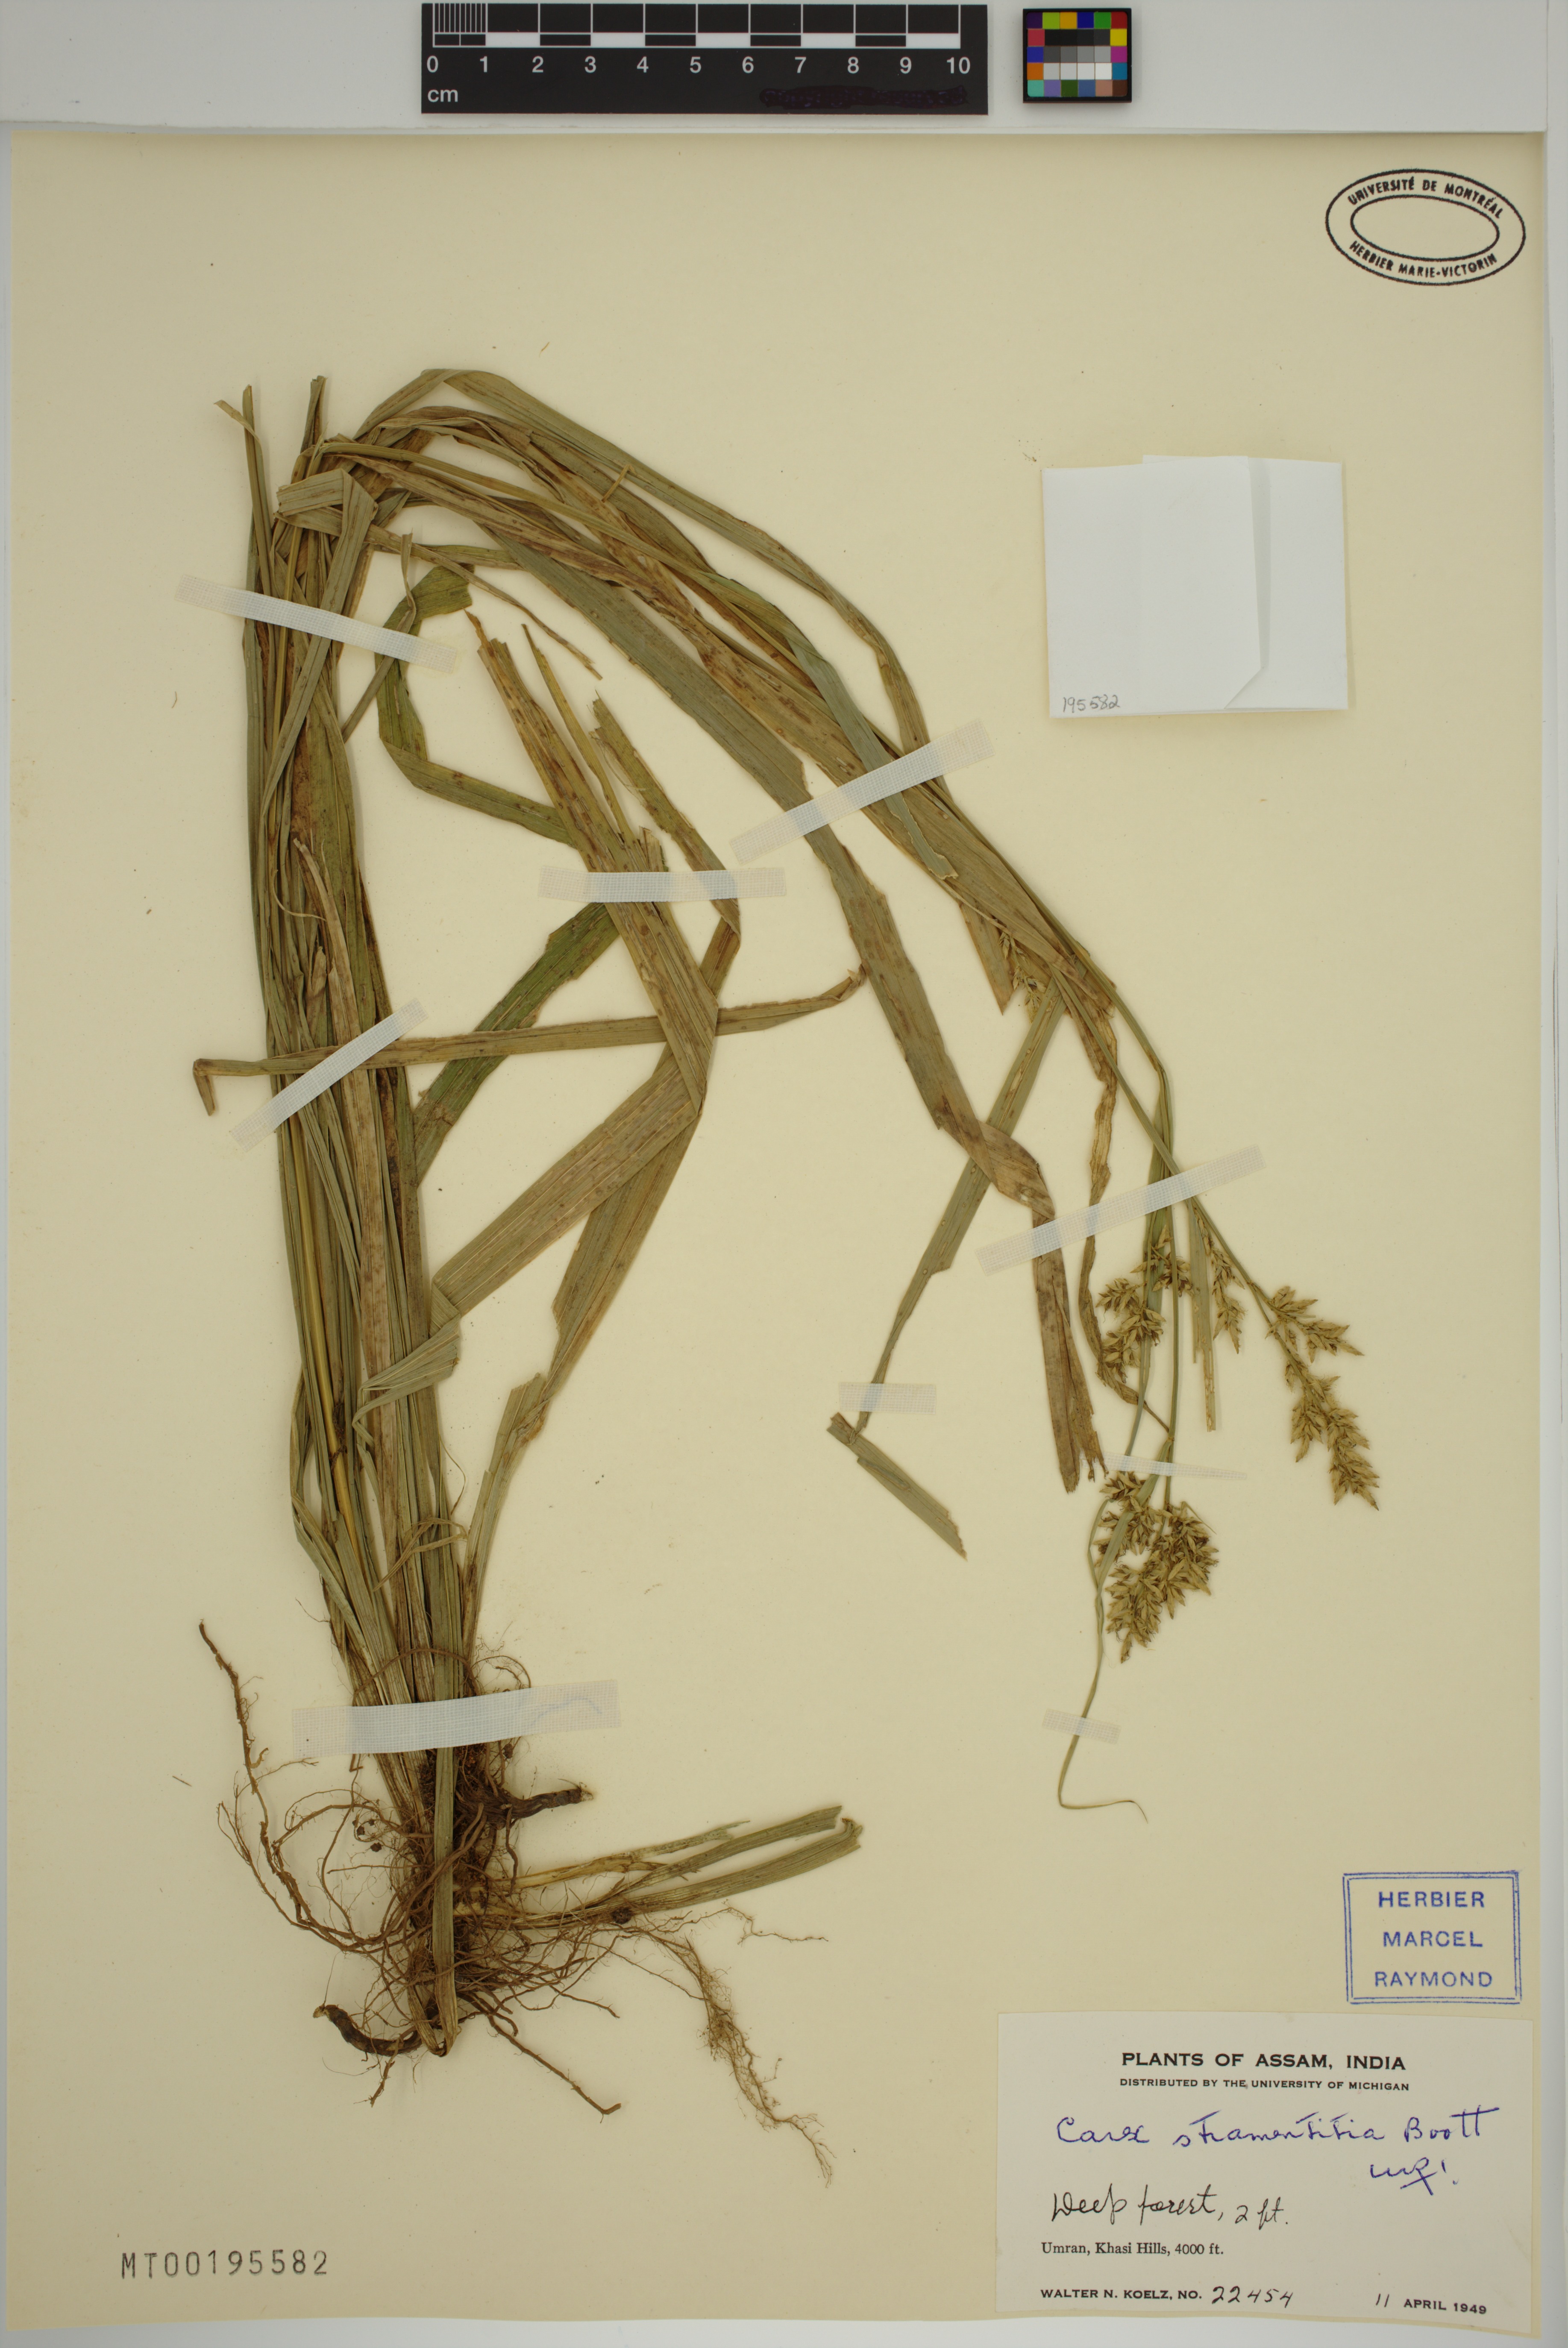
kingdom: Plantae
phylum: Tracheophyta
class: Liliopsida
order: Poales
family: Cyperaceae
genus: Carex
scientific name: Carex stramentitia
